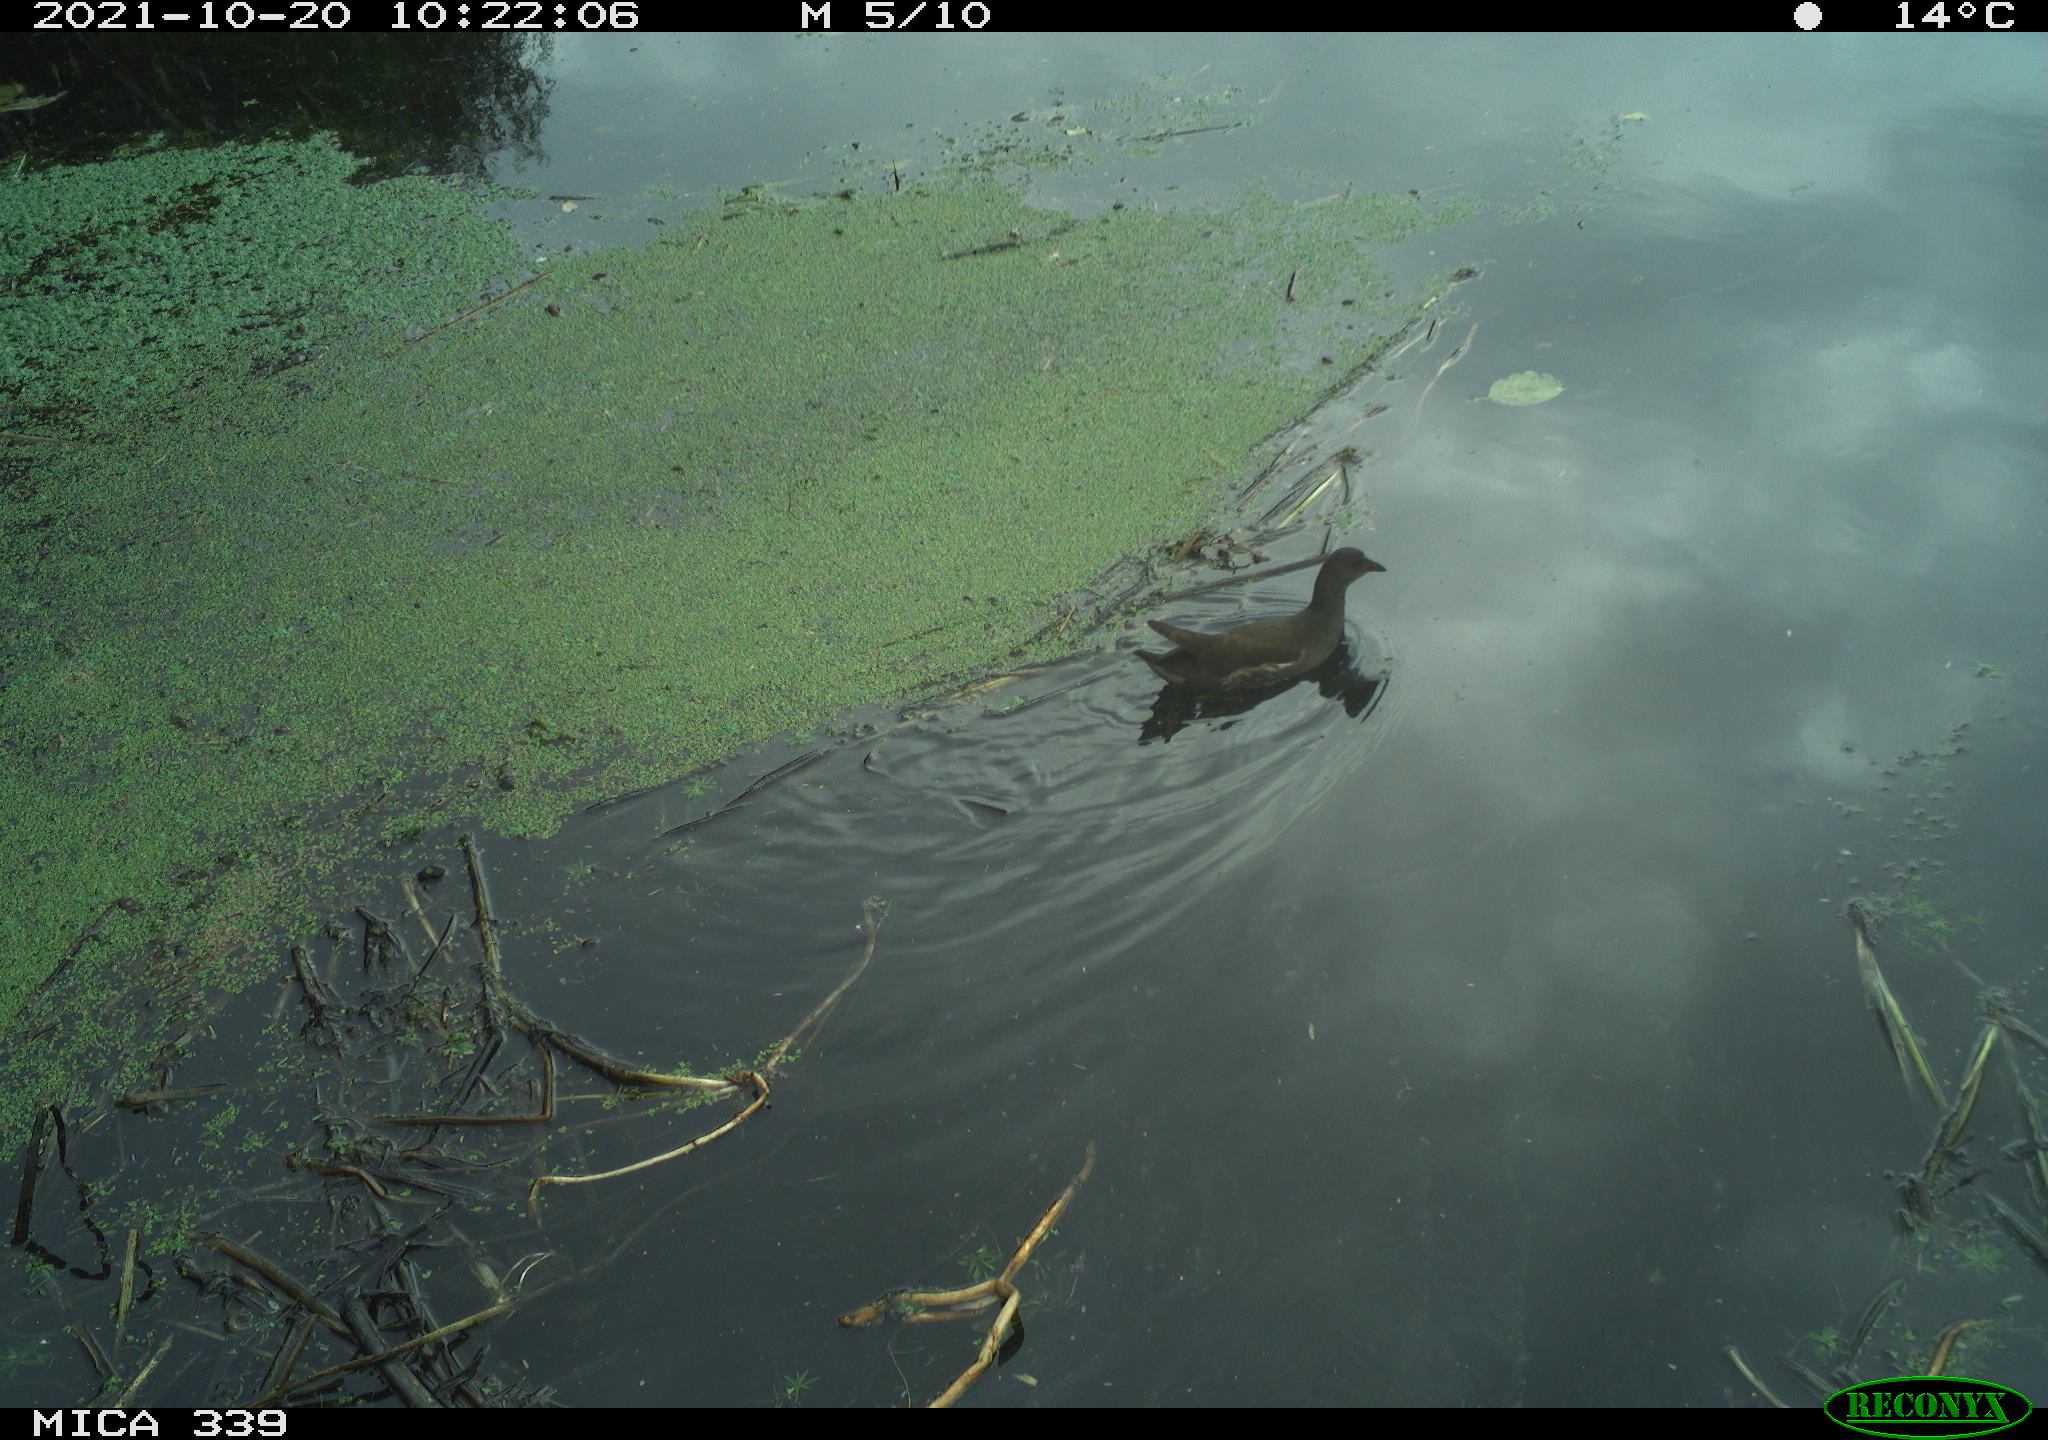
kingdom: Animalia
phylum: Chordata
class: Aves
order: Gruiformes
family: Rallidae
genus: Gallinula
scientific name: Gallinula chloropus
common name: Common moorhen
